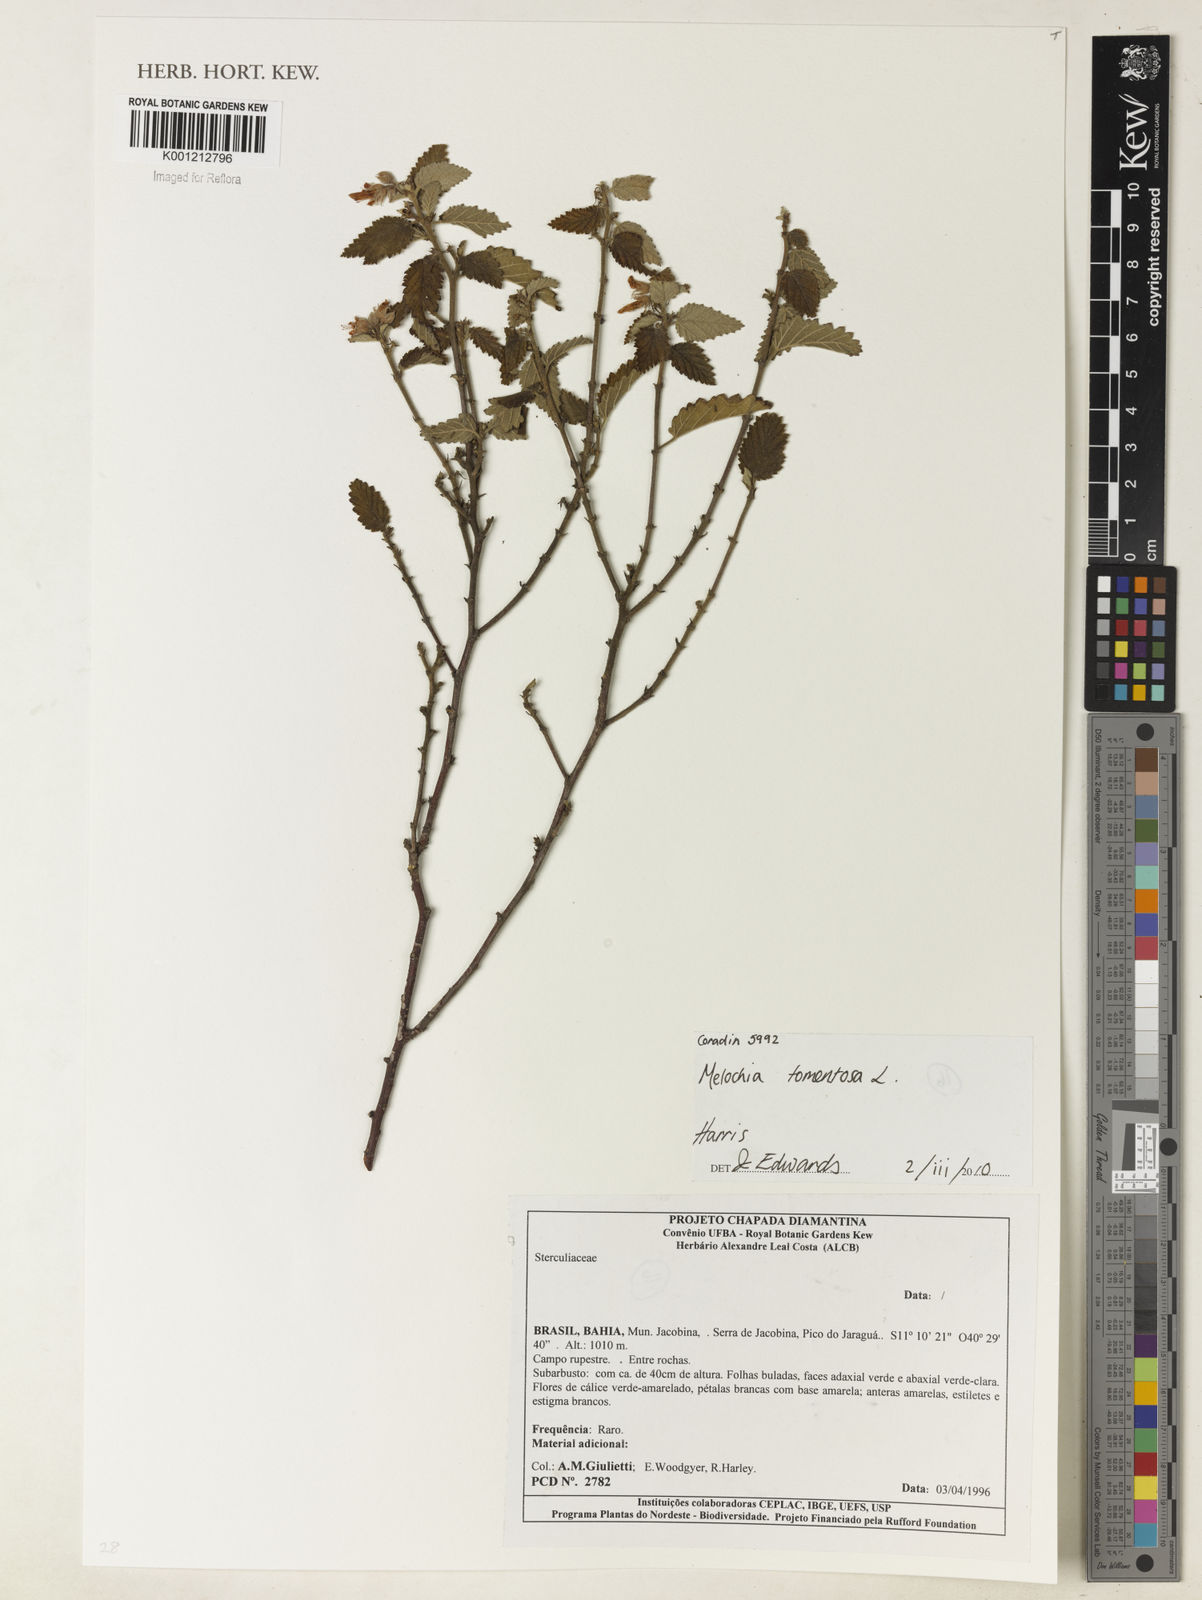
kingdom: Plantae
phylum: Tracheophyta
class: Magnoliopsida
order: Malvales
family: Malvaceae
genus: Melochia
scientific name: Melochia tomentosa
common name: Black torch
